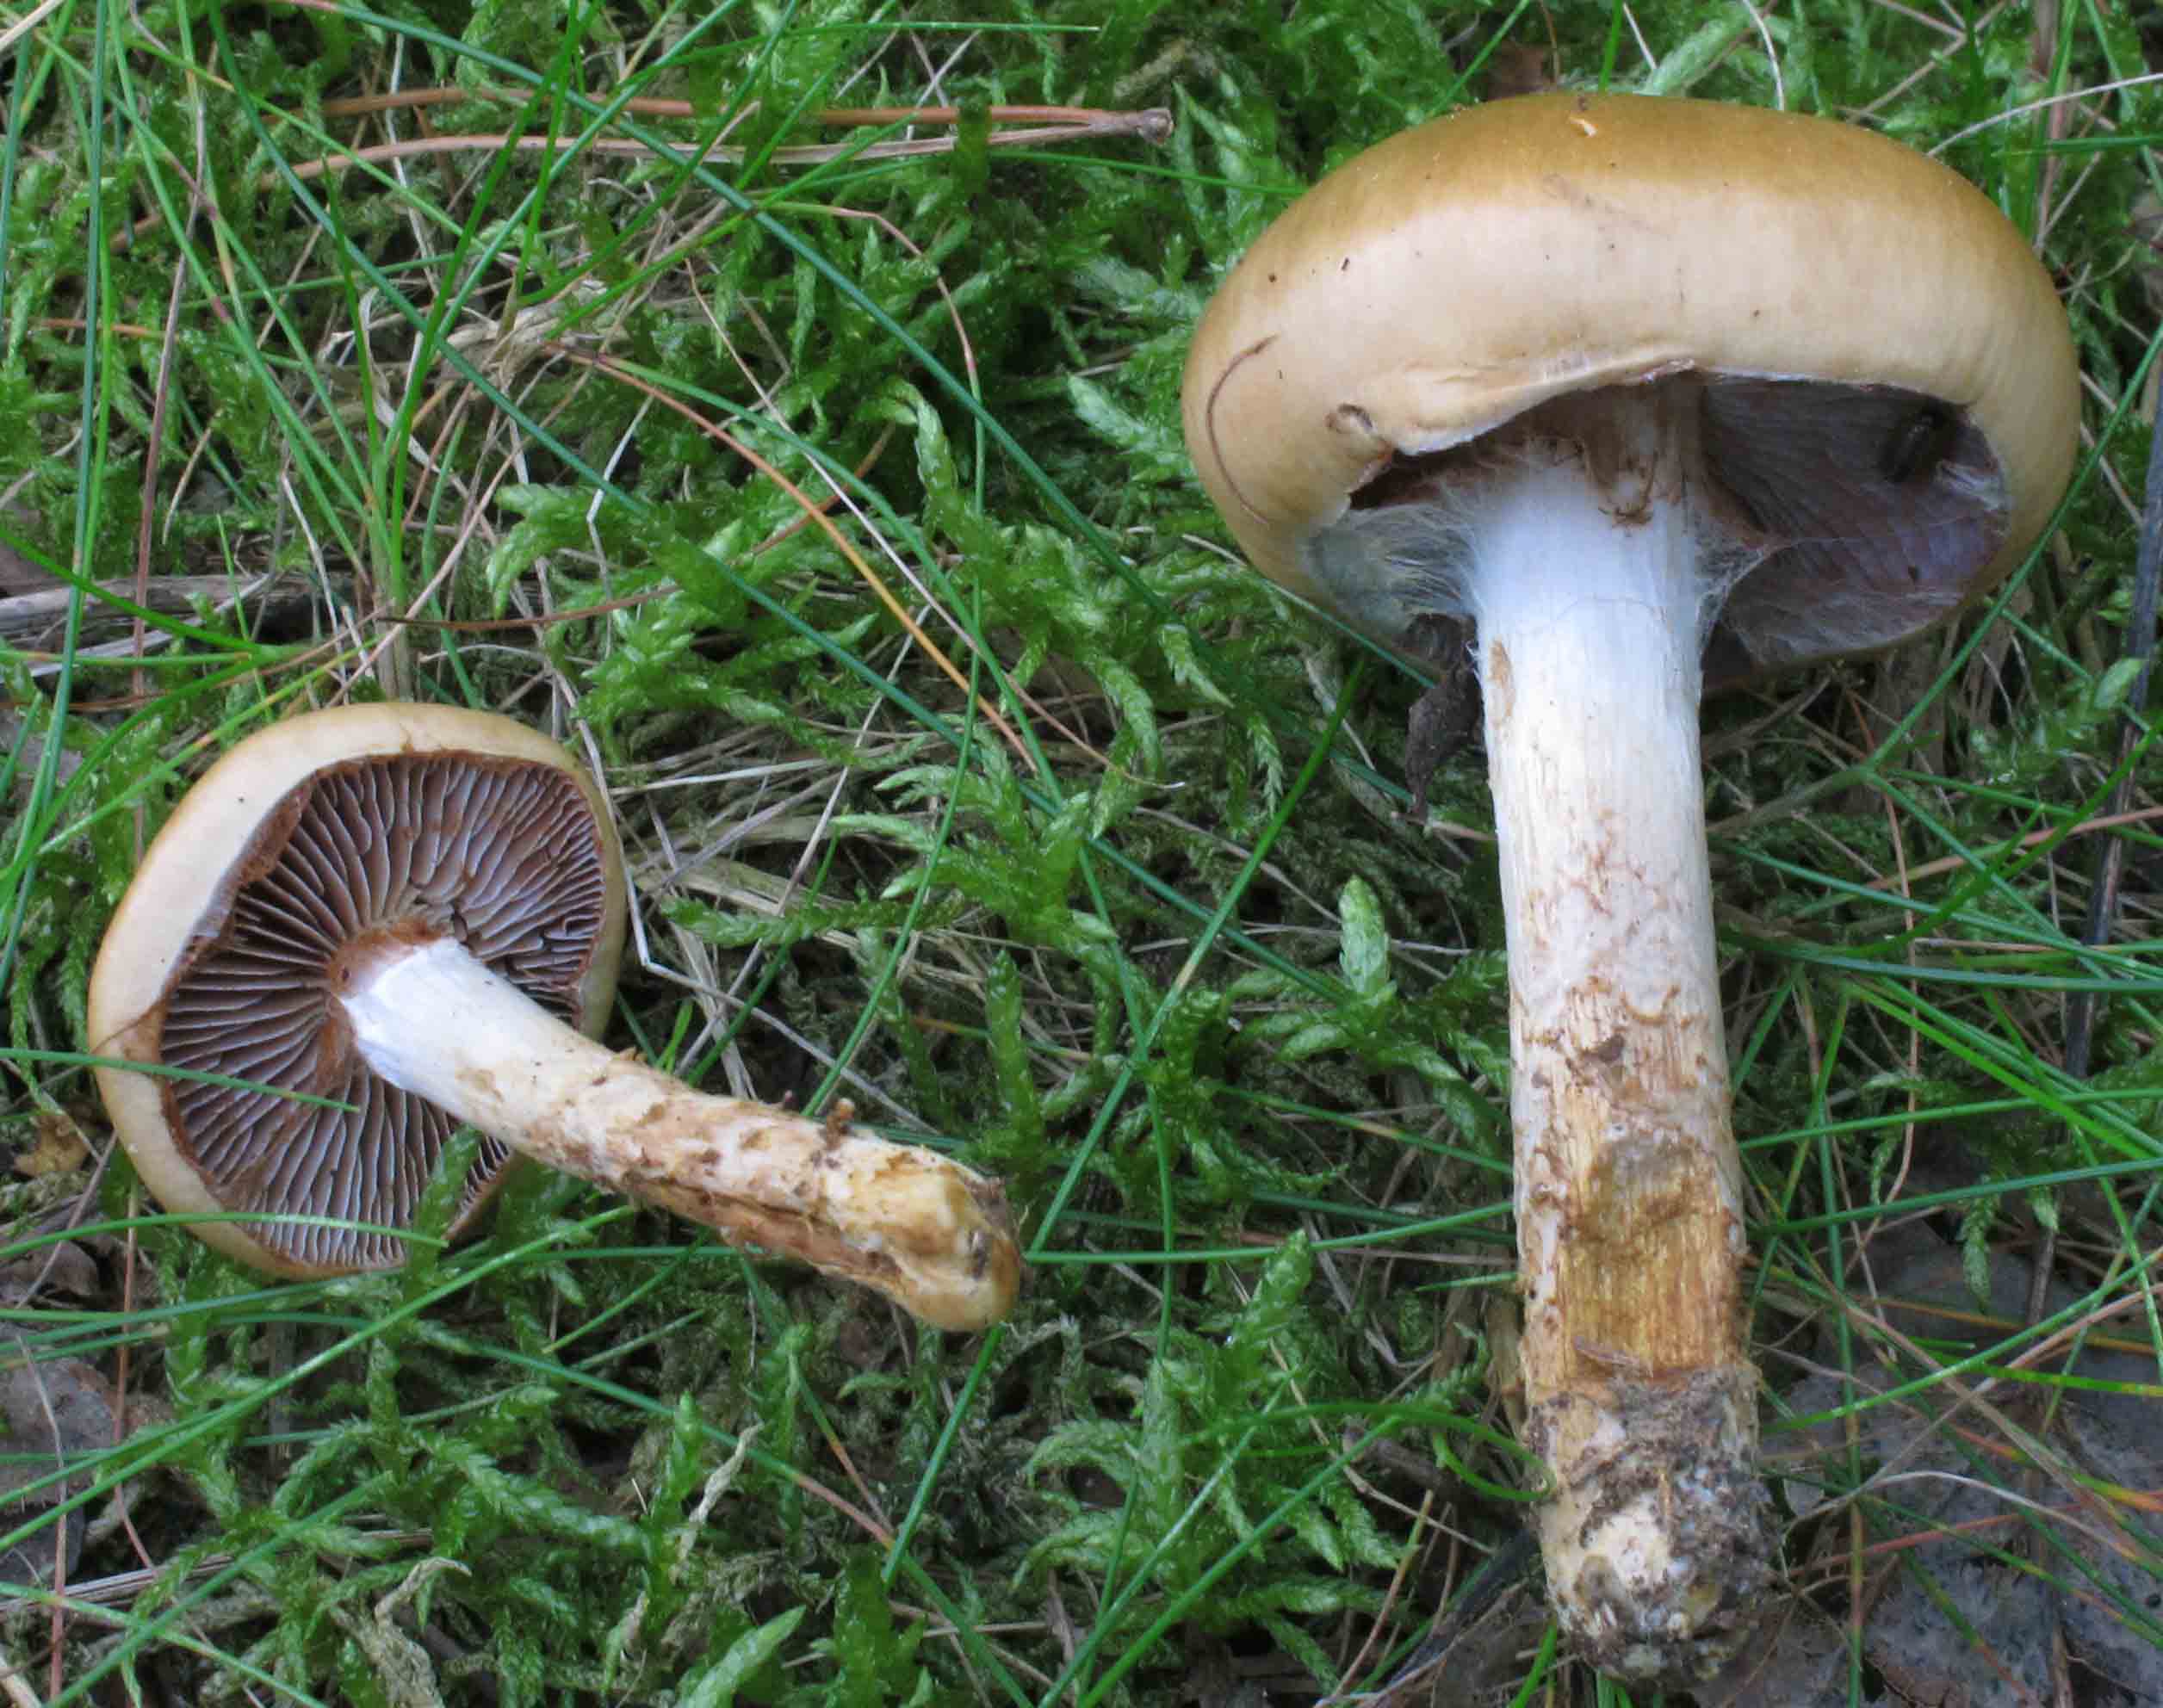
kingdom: Fungi
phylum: Basidiomycota
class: Agaricomycetes
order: Agaricales
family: Cortinariaceae
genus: Cortinarius
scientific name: Cortinarius trivialis
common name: brunslimet slørhat
